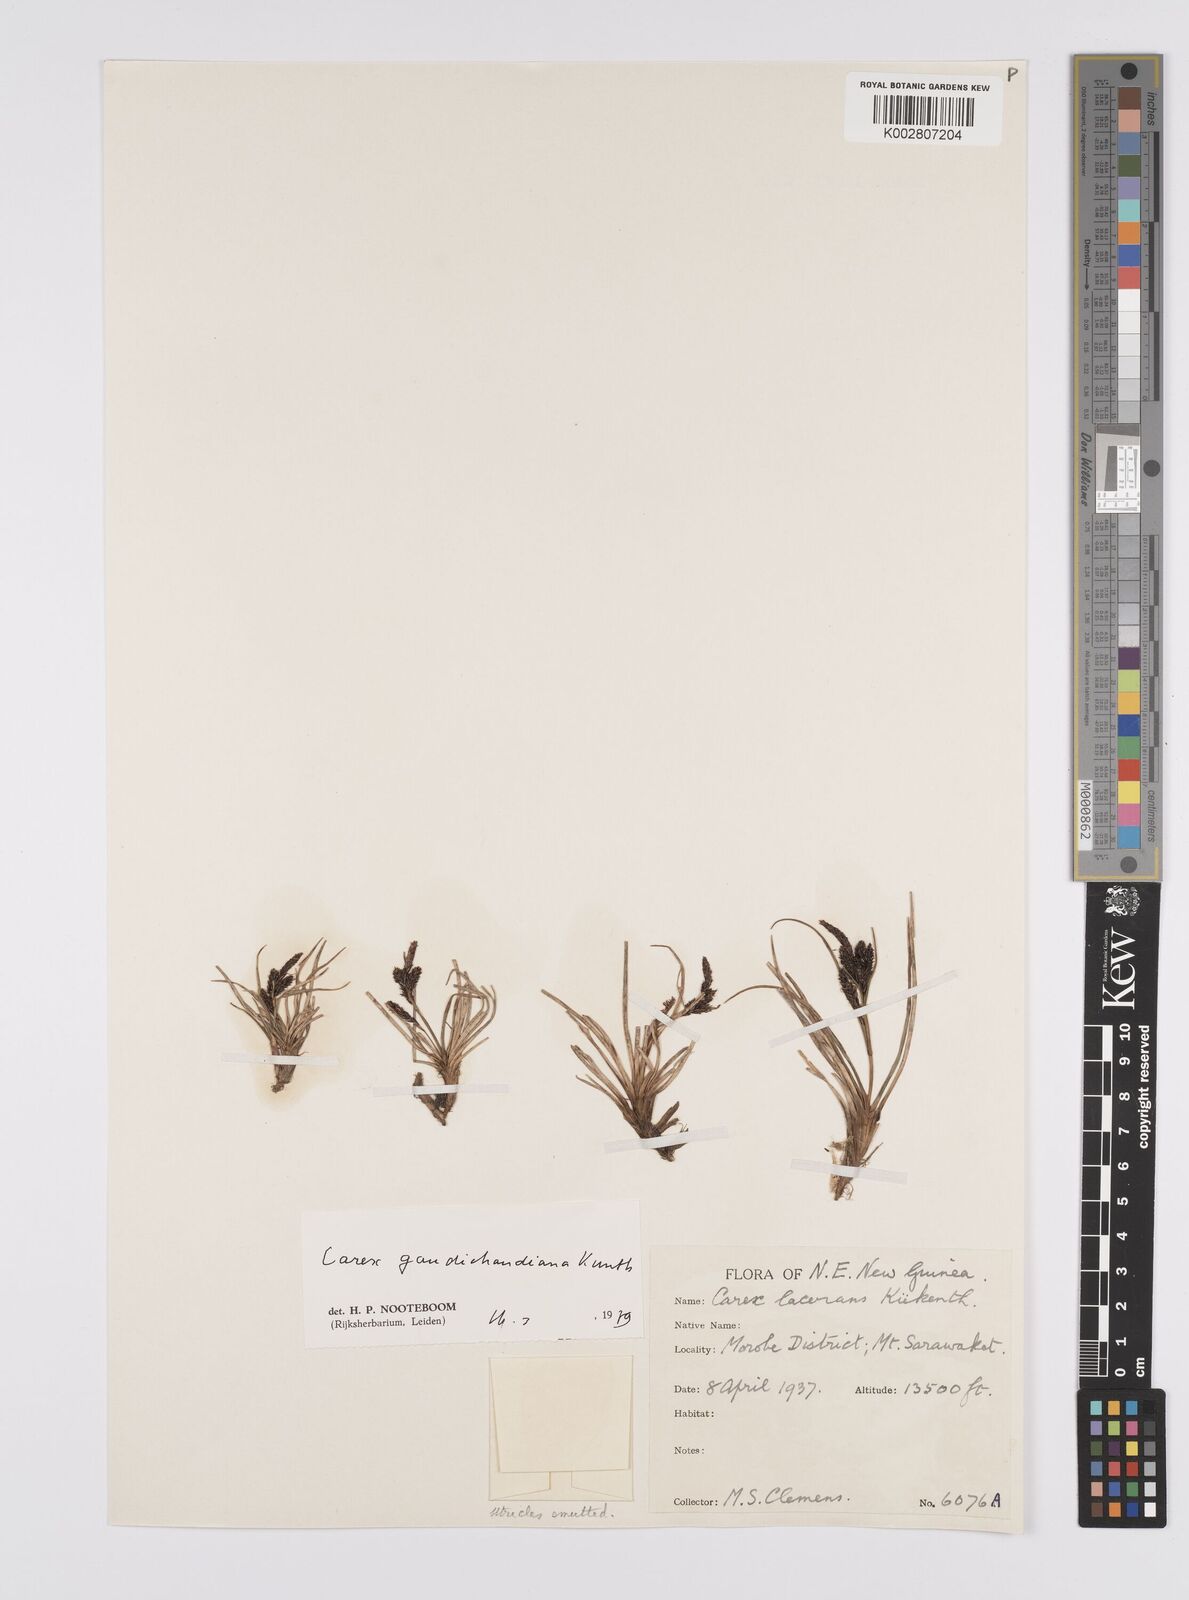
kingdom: Plantae
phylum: Tracheophyta
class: Liliopsida
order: Poales
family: Cyperaceae
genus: Carex
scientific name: Carex gaudichaudiana
